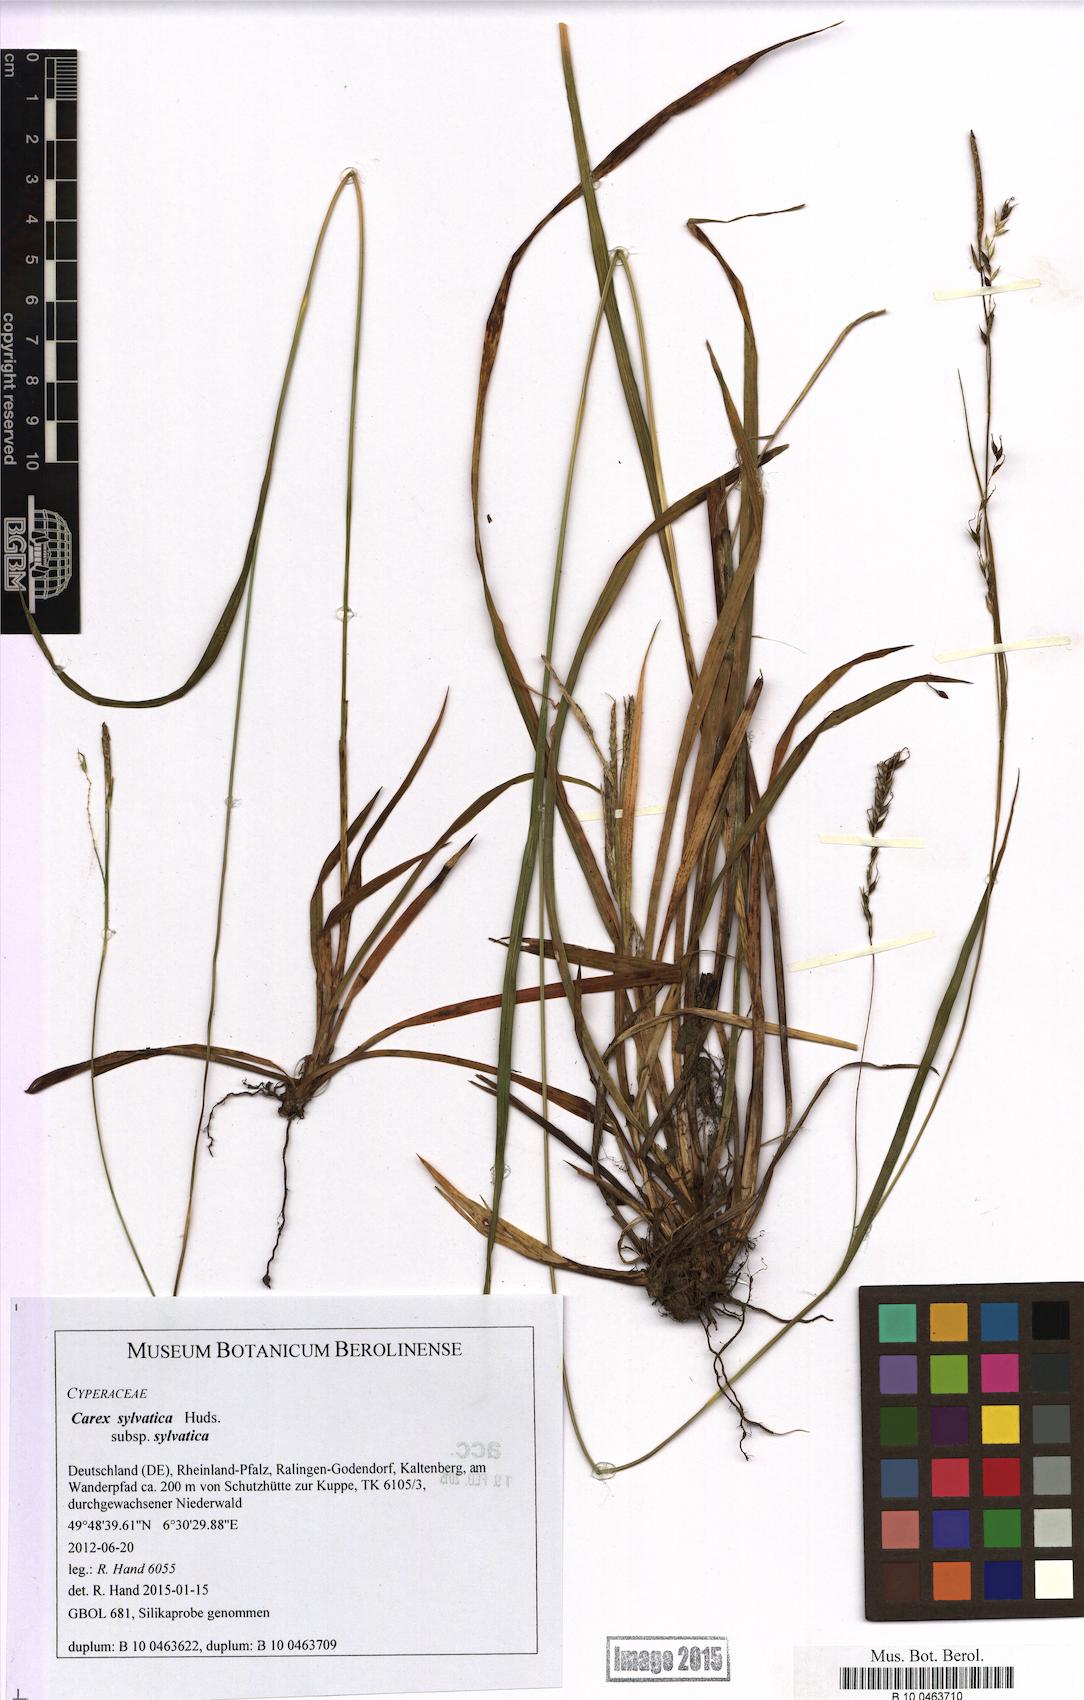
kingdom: Plantae
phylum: Tracheophyta
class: Liliopsida
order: Poales
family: Cyperaceae
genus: Carex
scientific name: Carex sylvatica
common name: Wood-sedge
